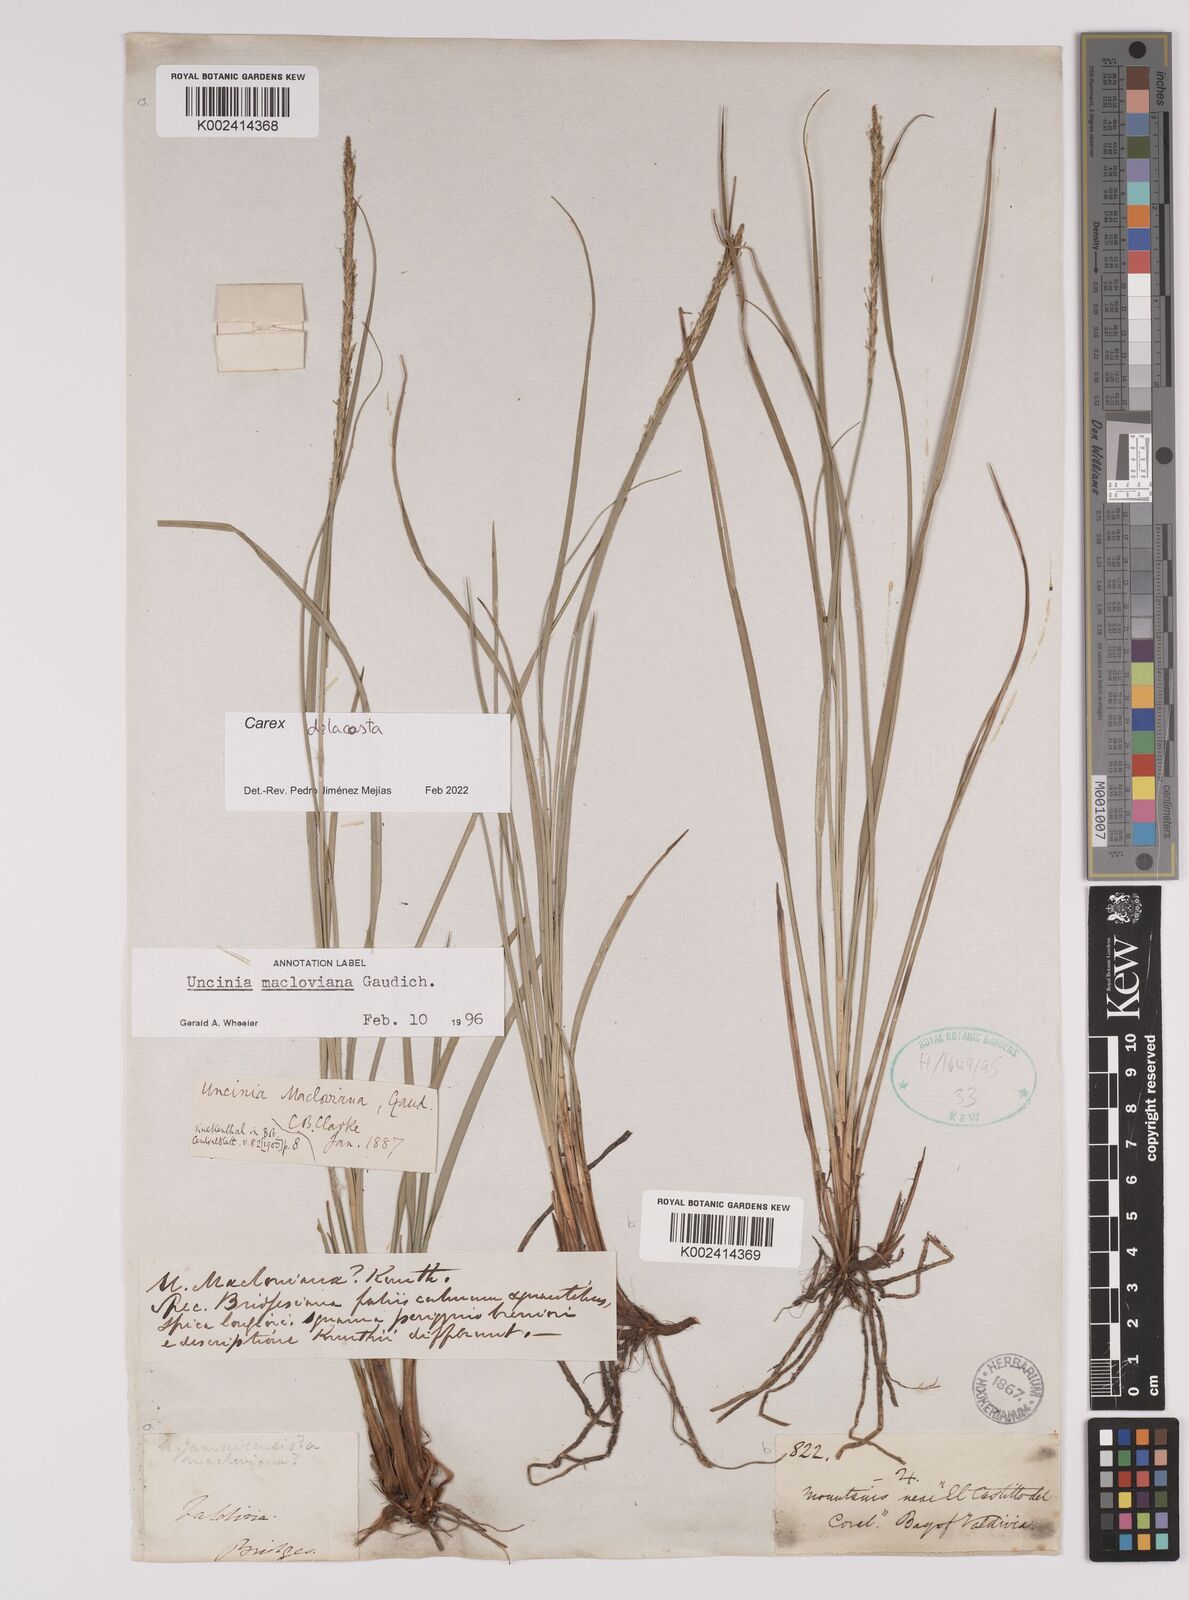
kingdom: Plantae
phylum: Tracheophyta
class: Liliopsida
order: Poales
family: Cyperaceae
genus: Carex
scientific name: Carex delacosta
